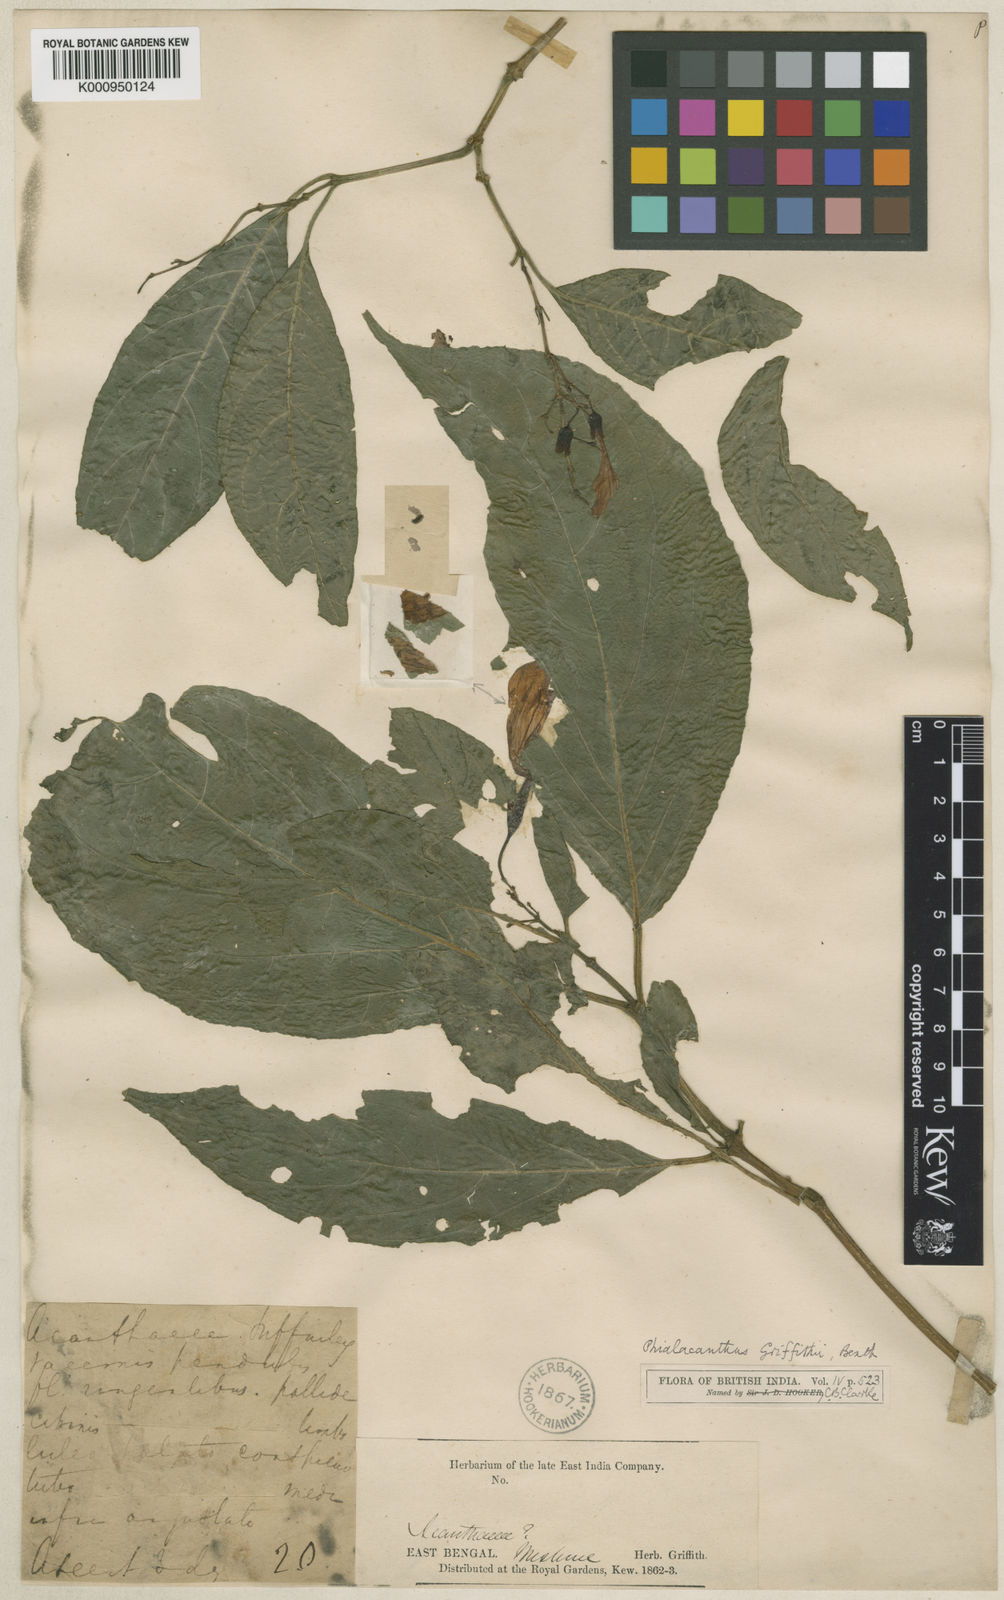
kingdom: Plantae
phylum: Tracheophyta
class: Magnoliopsida
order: Lamiales
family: Acanthaceae
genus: Phialacanthus
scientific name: Phialacanthus
